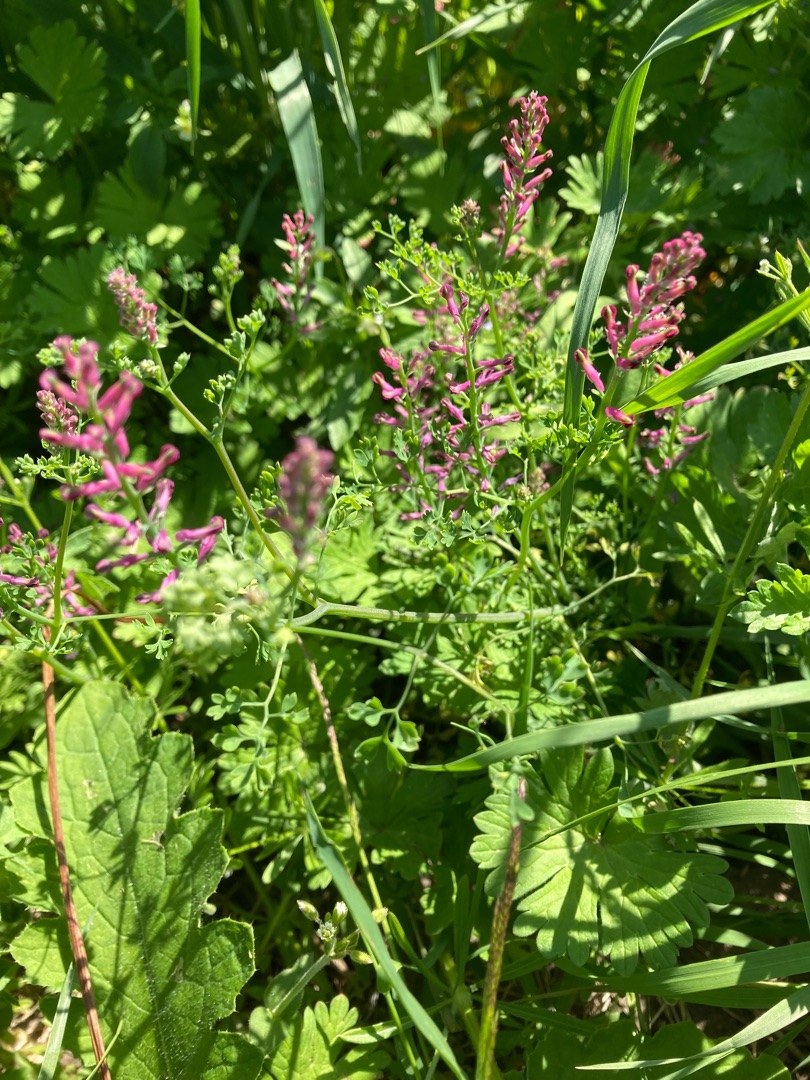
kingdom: Plantae
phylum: Tracheophyta
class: Magnoliopsida
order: Ranunculales
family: Papaveraceae
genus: Fumaria
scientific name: Fumaria officinalis
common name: Læge-jordrøg
